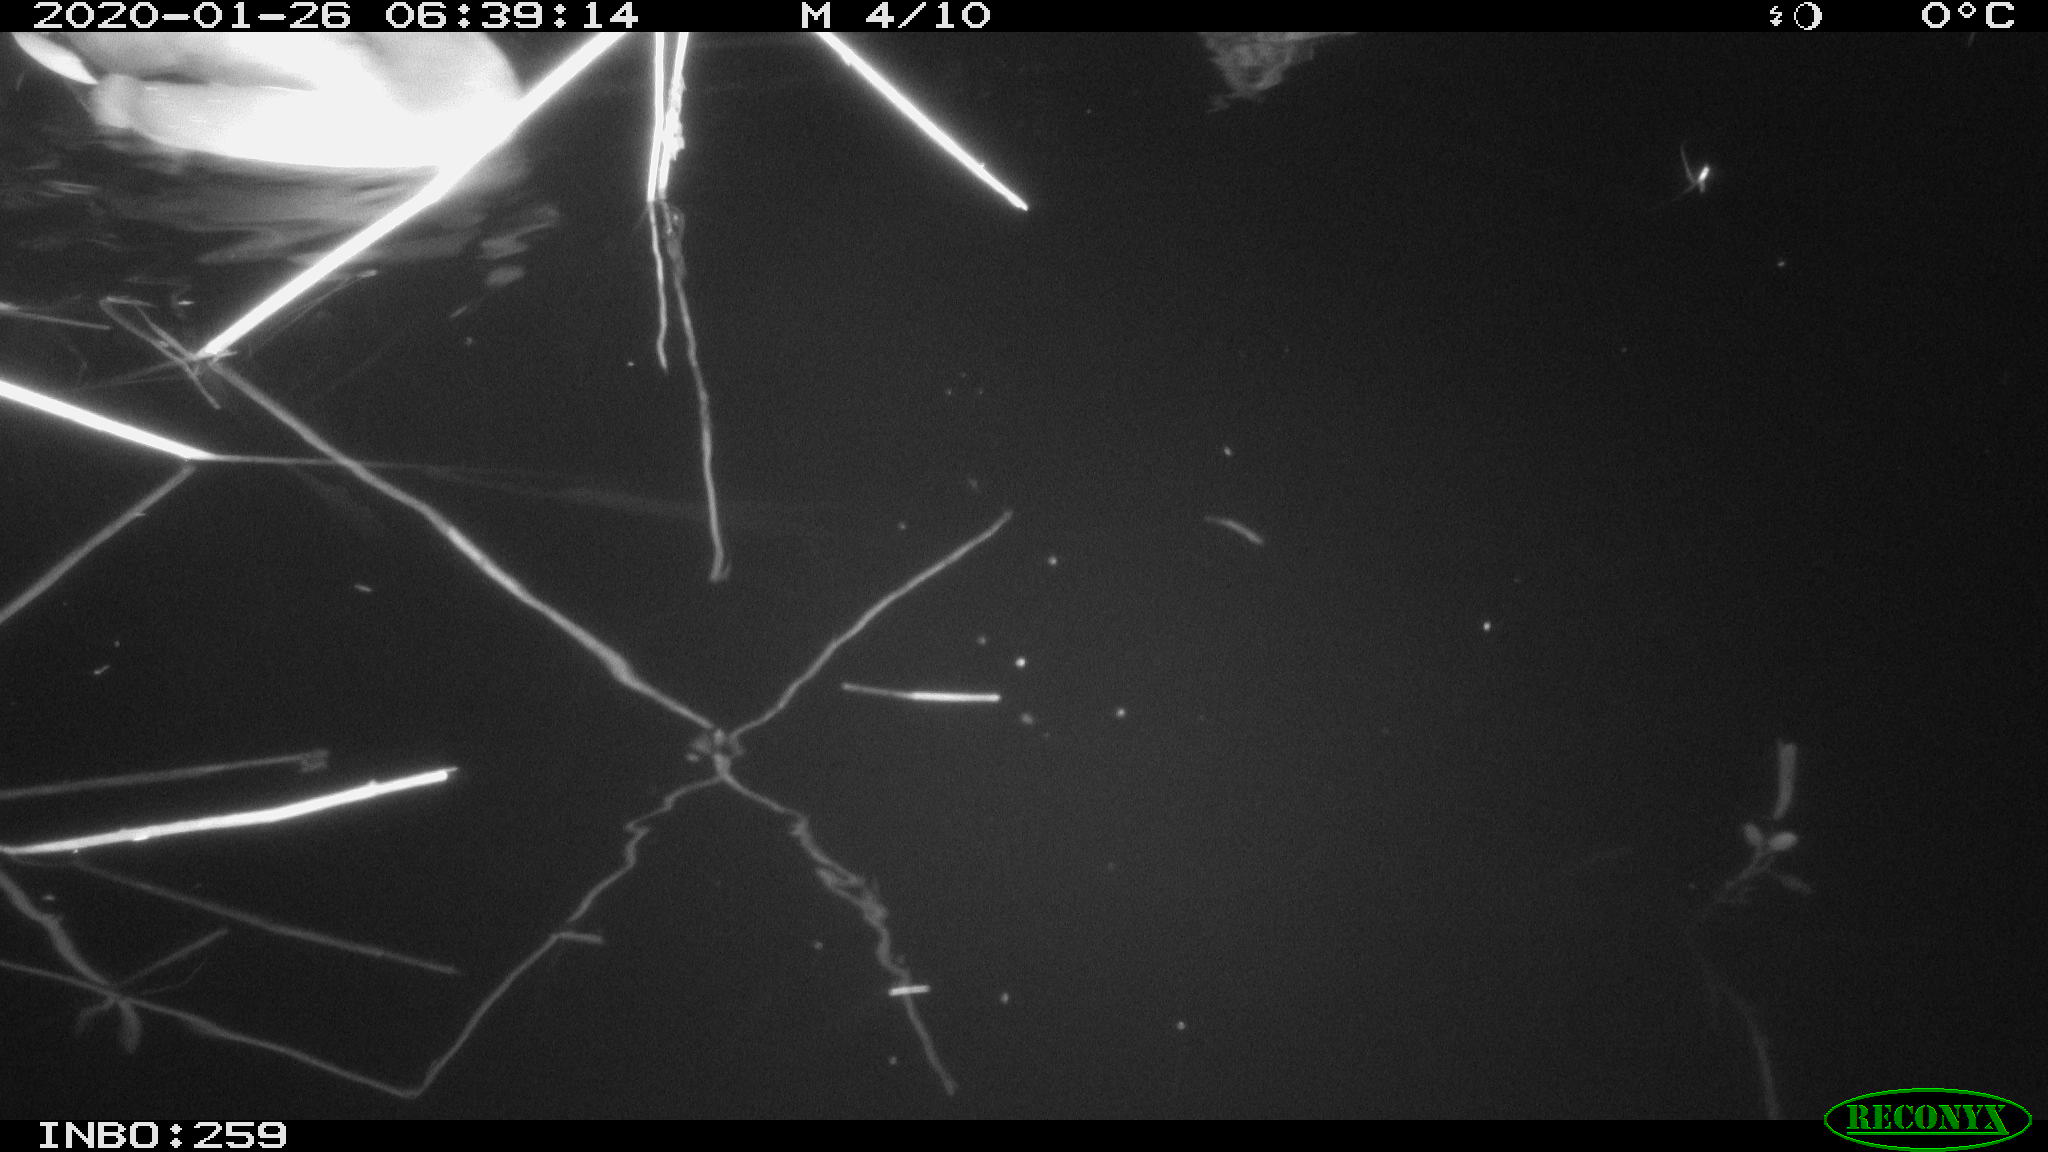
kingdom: Animalia
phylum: Chordata
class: Aves
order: Anseriformes
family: Anatidae
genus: Anas
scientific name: Anas platyrhynchos
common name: Mallard
